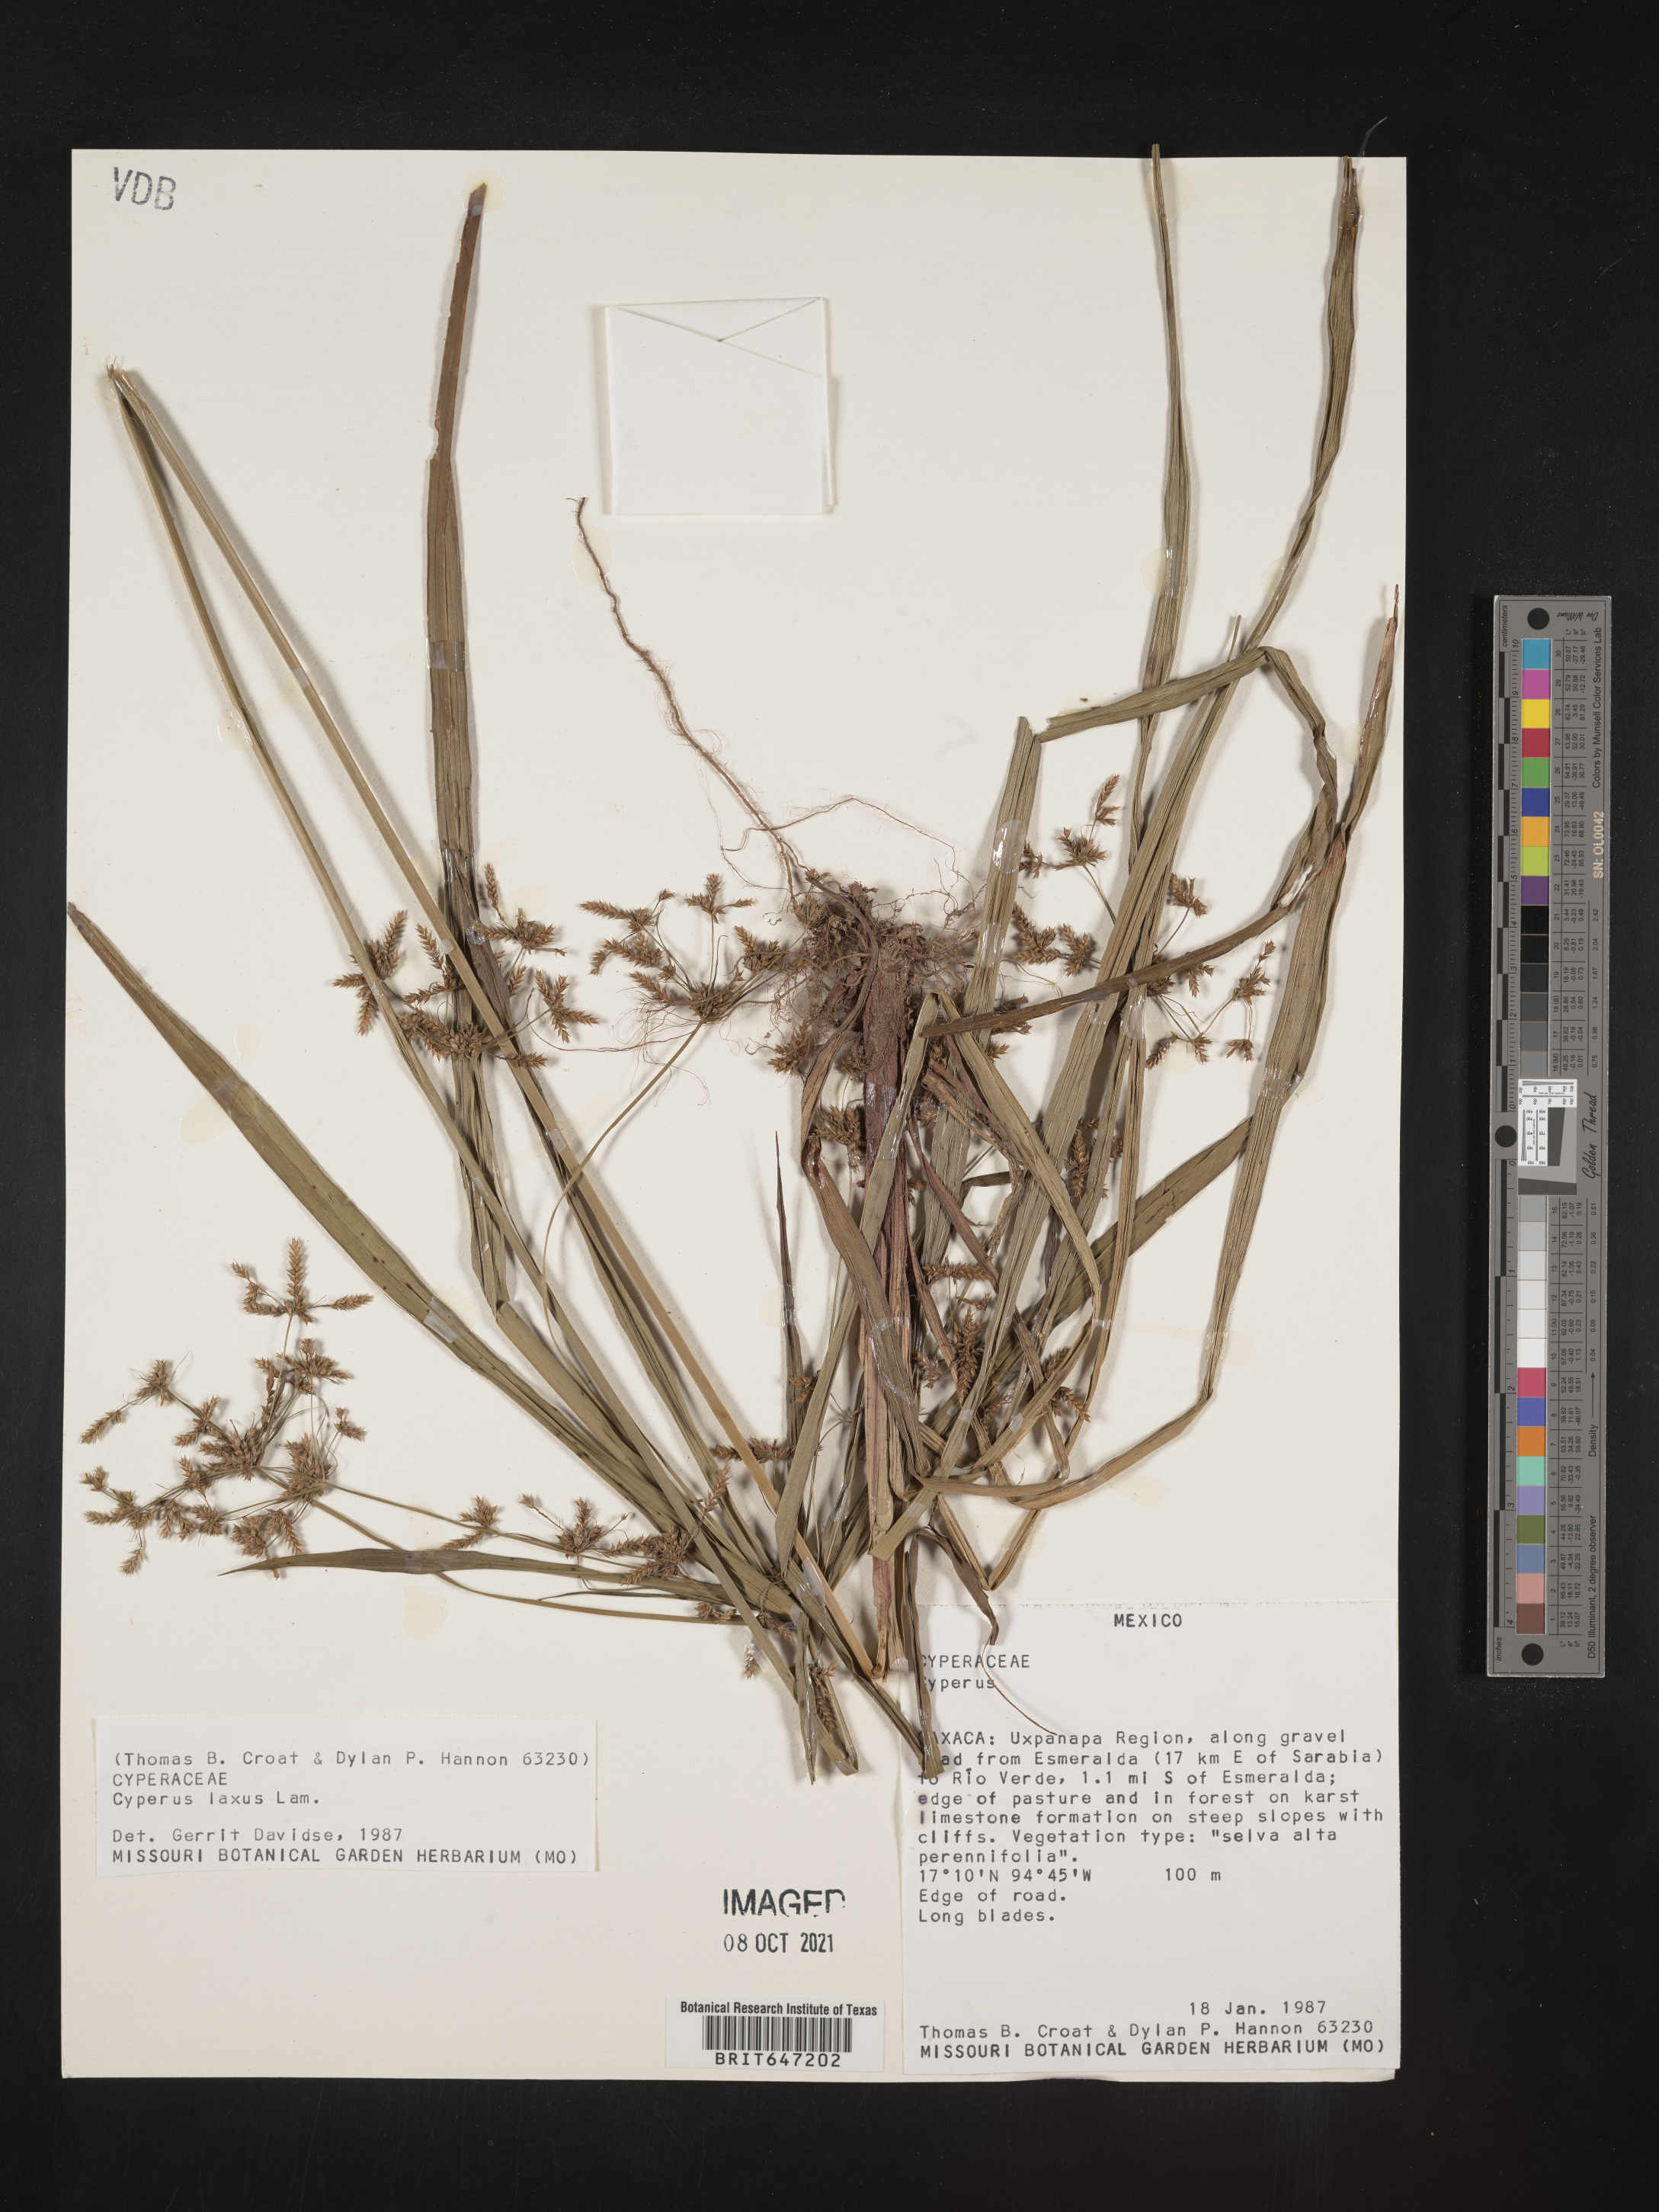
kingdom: Plantae
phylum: Tracheophyta
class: Liliopsida
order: Poales
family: Cyperaceae
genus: Cyperus
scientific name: Cyperus laxus
